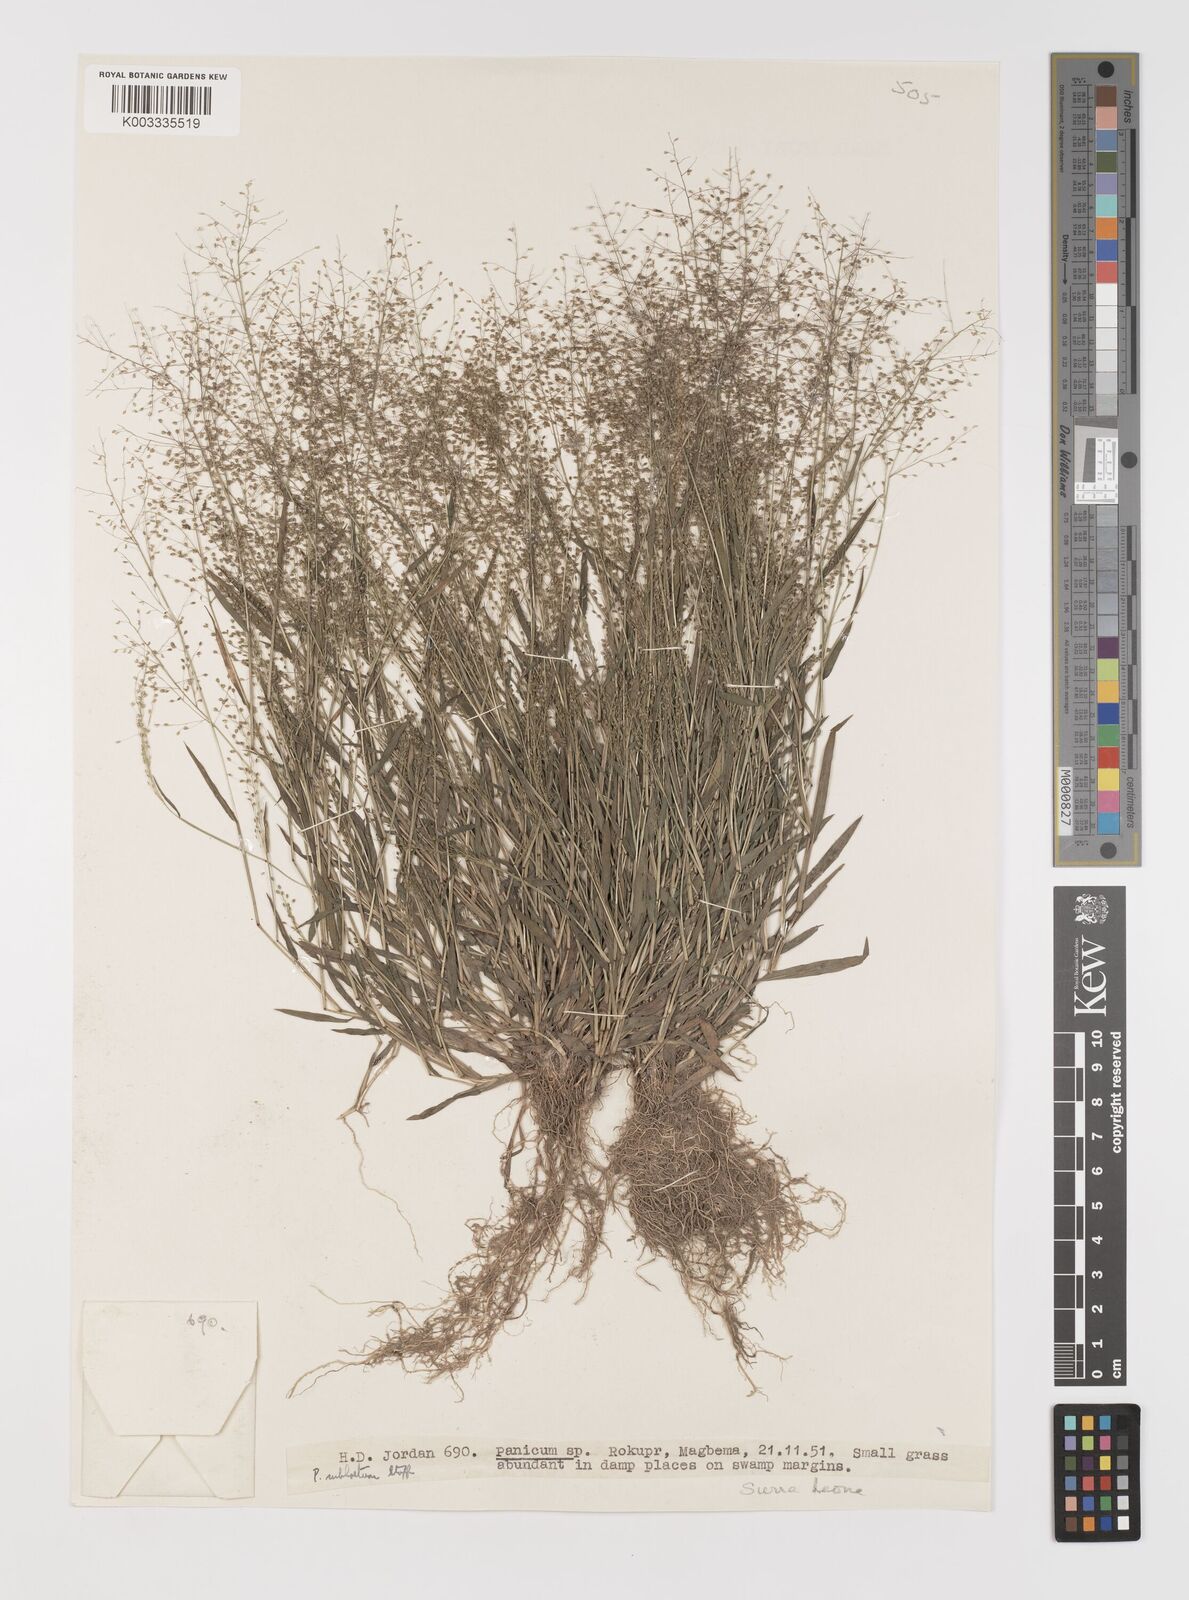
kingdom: Plantae
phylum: Tracheophyta
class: Liliopsida
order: Poales
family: Poaceae
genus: Trichanthecium
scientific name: Trichanthecium tenellum
